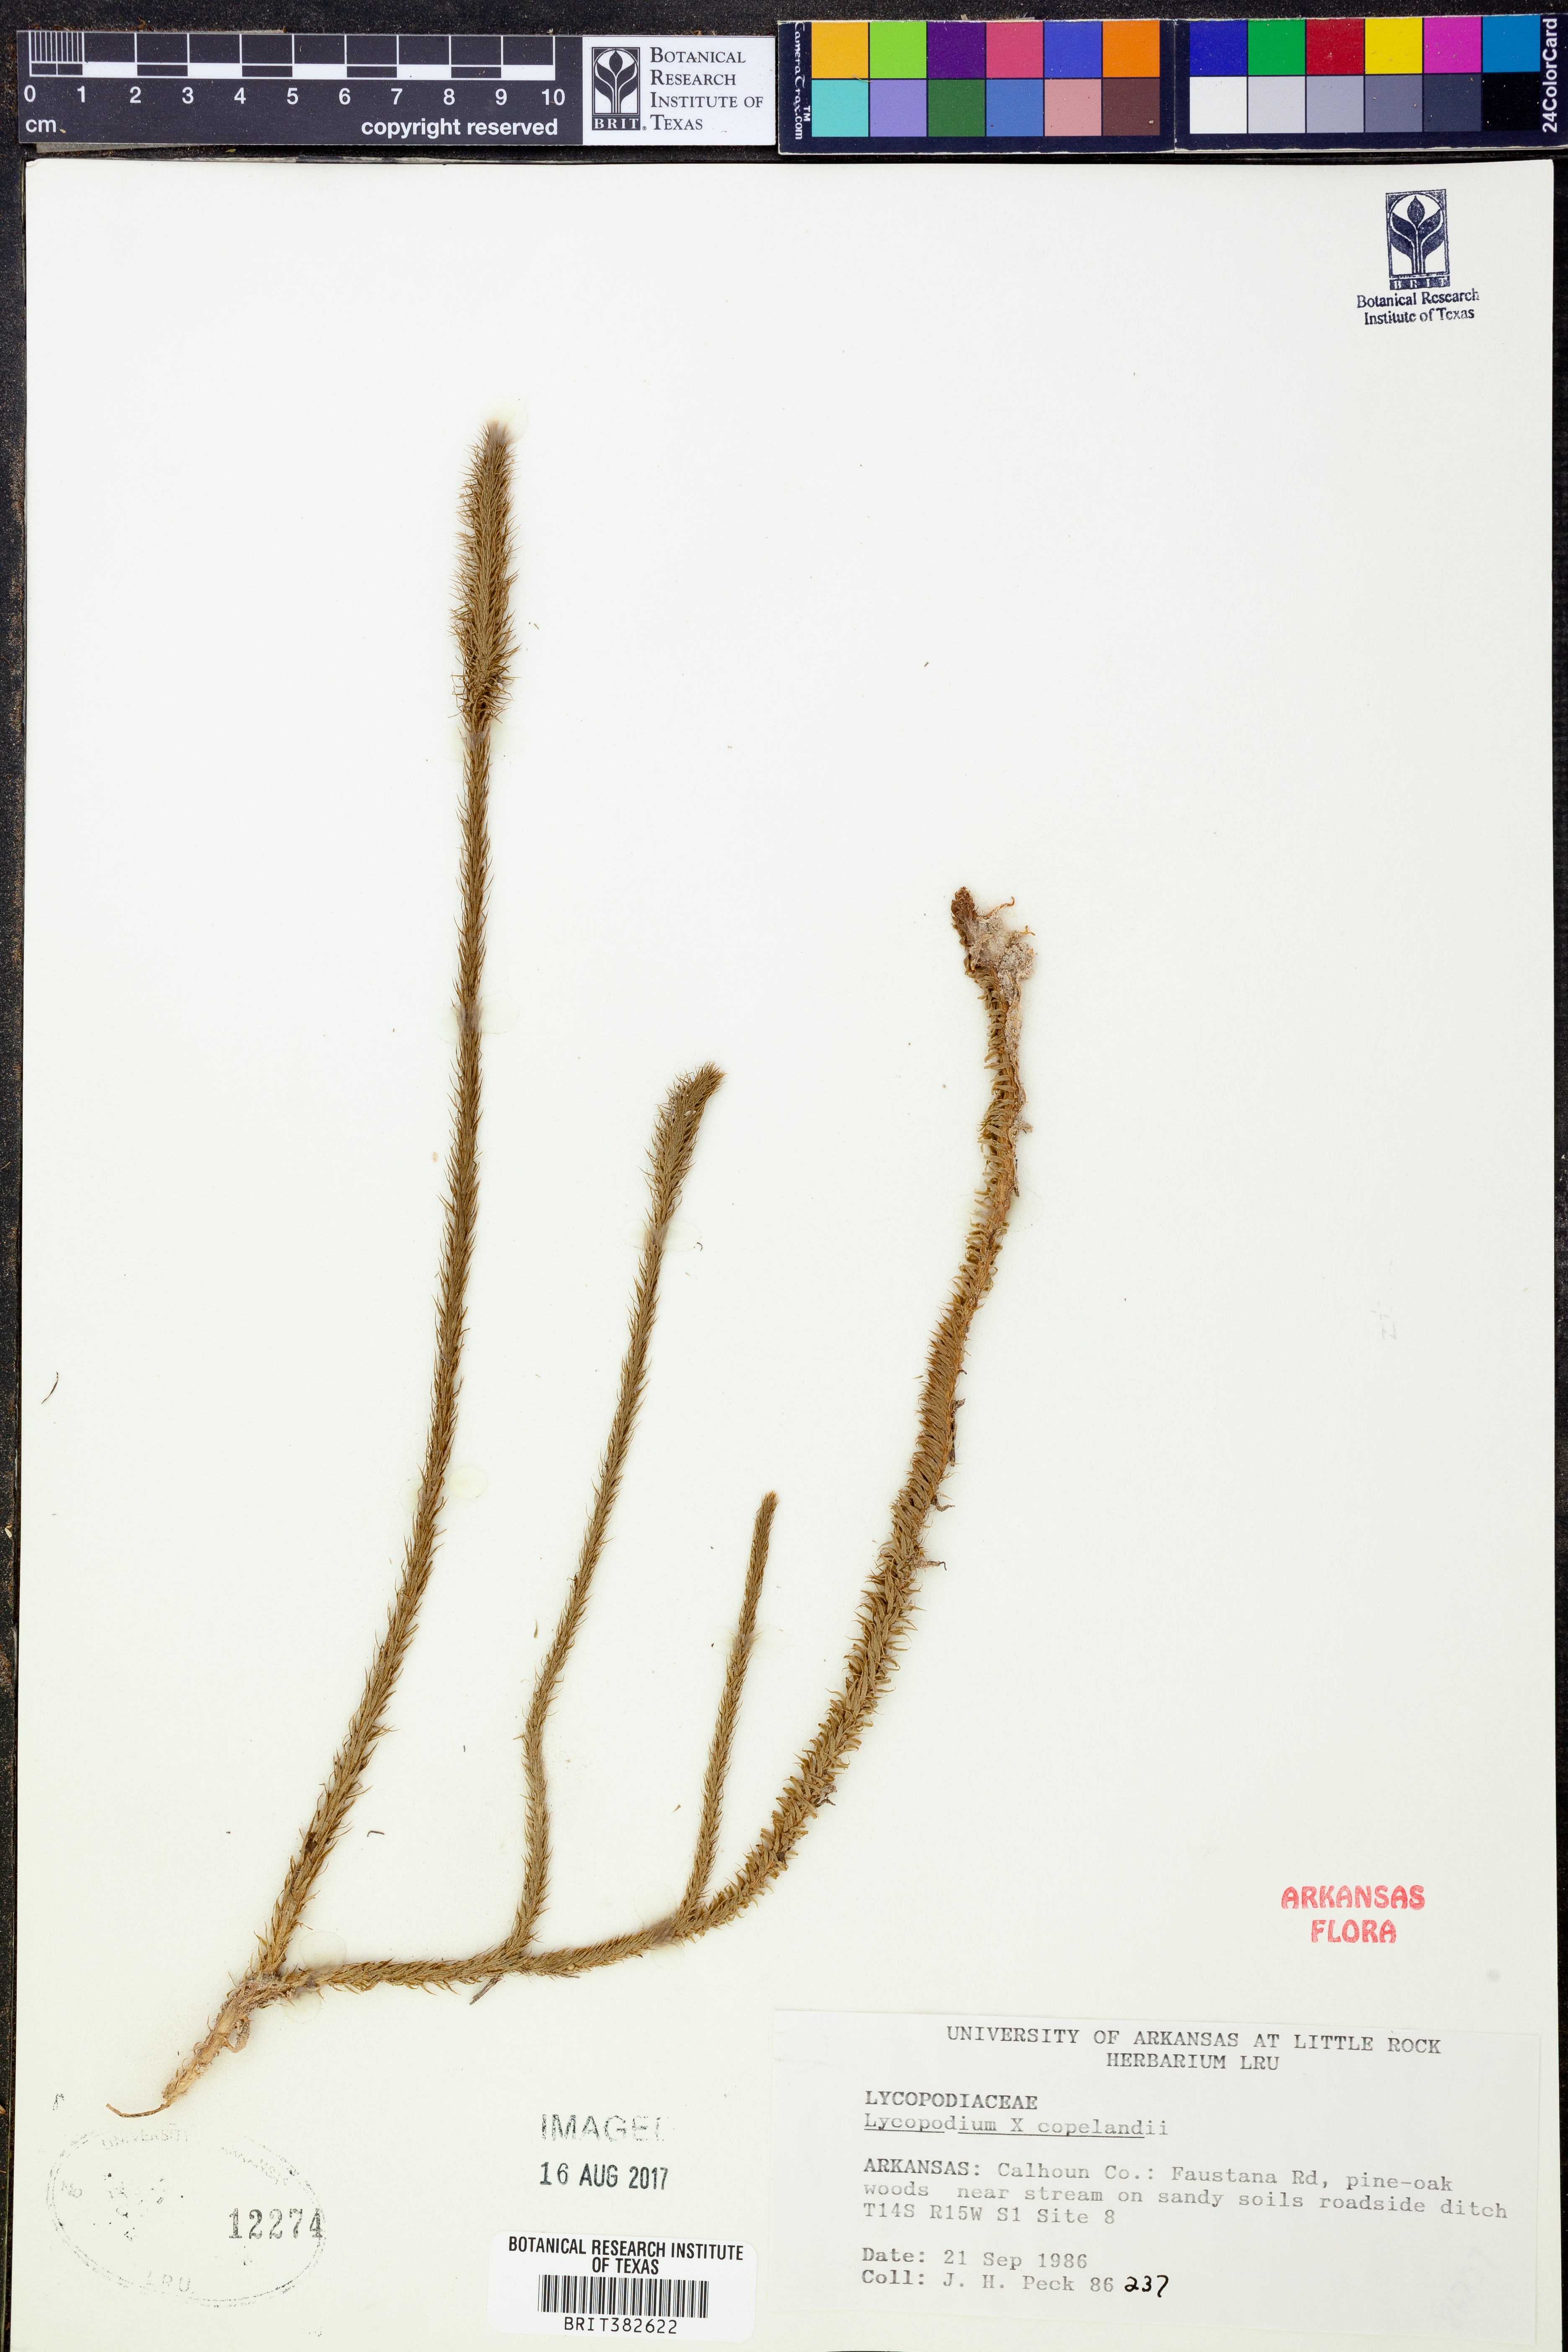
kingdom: Plantae
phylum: Tracheophyta
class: Lycopodiopsida
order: Lycopodiales
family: Lycopodiaceae
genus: Lycopodiella
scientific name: Lycopodiella copelandii
